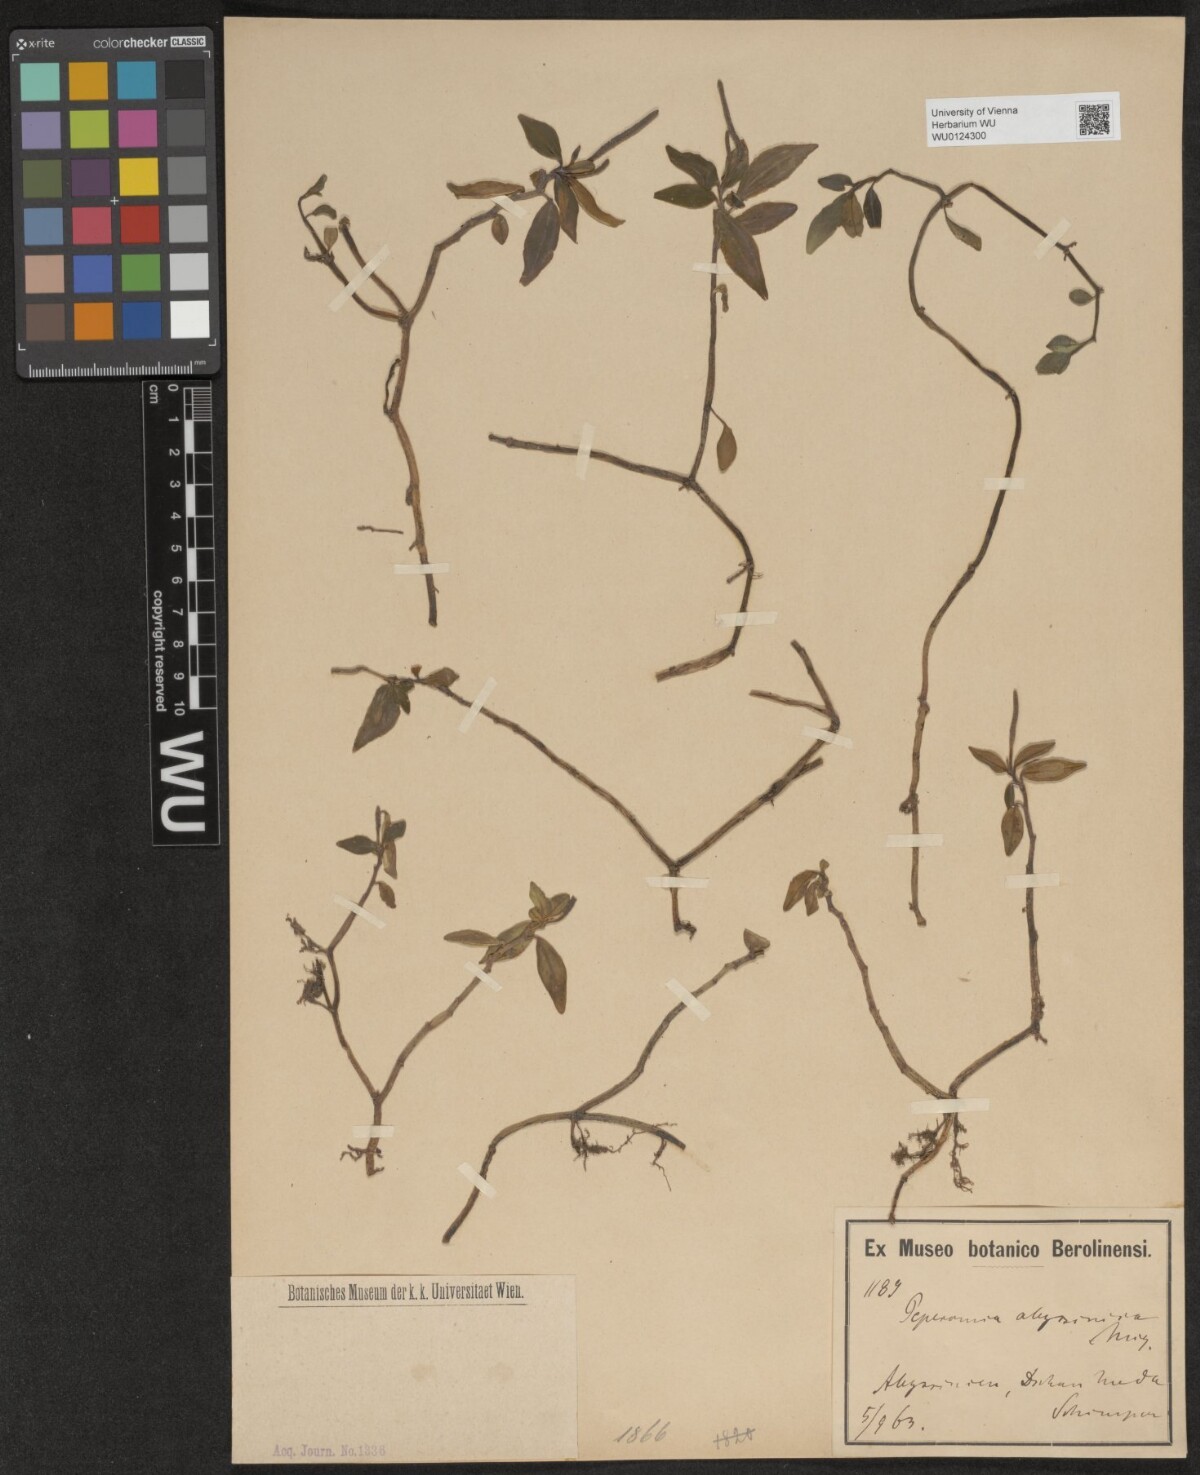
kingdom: Plantae
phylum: Tracheophyta
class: Magnoliopsida
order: Piperales
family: Piperaceae
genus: Peperomia
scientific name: Peperomia abyssinica
